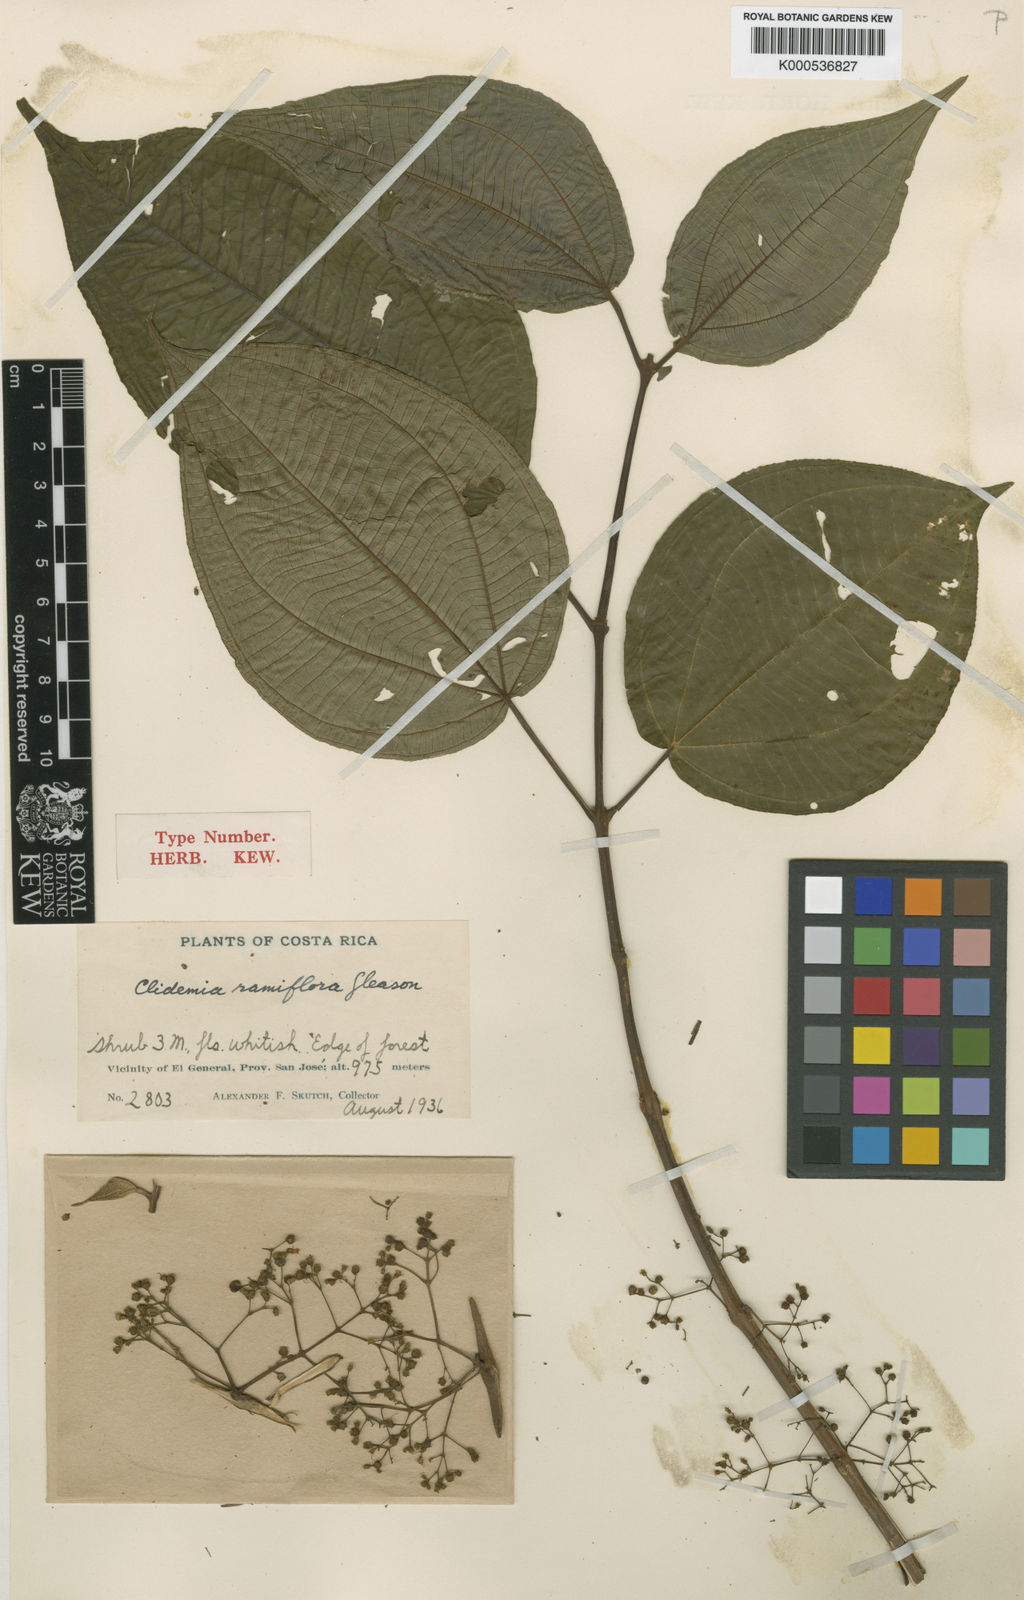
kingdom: Plantae
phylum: Tracheophyta
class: Magnoliopsida
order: Myrtales
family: Melastomataceae
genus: Miconia
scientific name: Miconia ostrina
